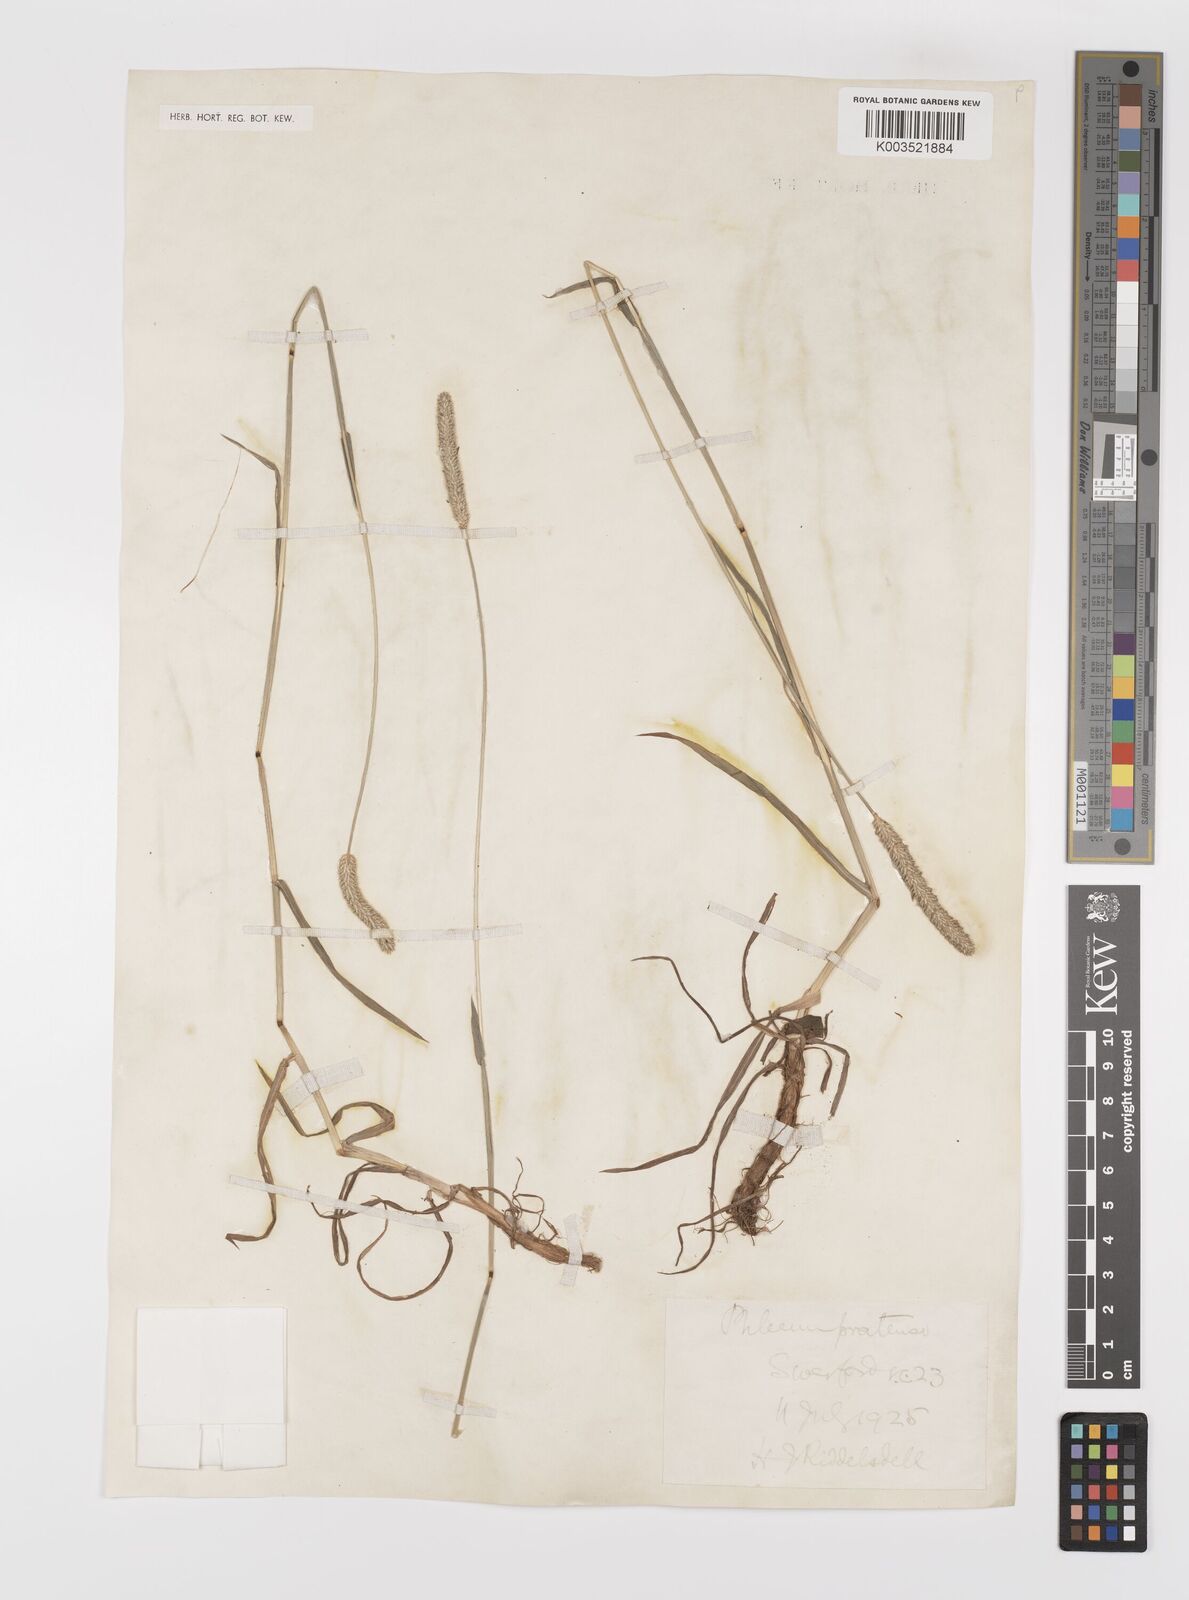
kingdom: Plantae
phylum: Tracheophyta
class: Liliopsida
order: Poales
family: Poaceae
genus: Phleum
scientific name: Phleum pratense
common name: Timothy grass
